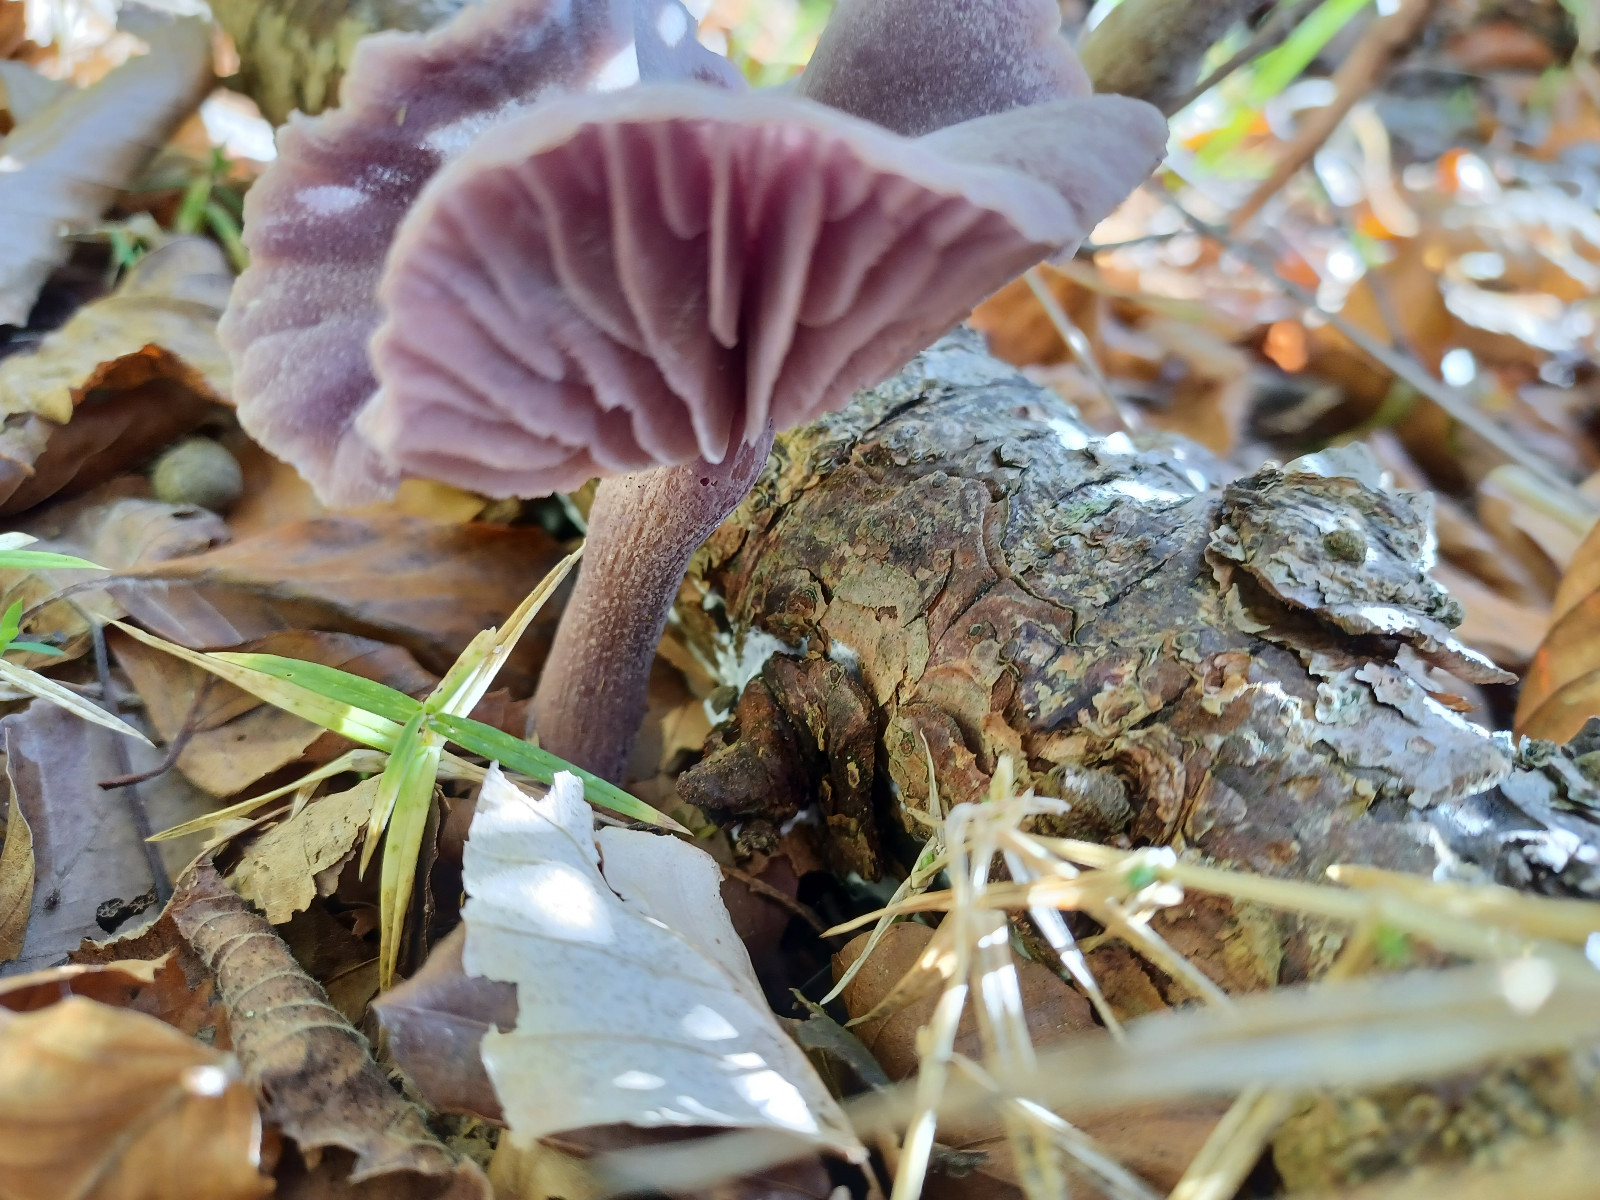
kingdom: Fungi
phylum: Basidiomycota
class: Agaricomycetes
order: Agaricales
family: Hydnangiaceae
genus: Laccaria
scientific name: Laccaria amethystina
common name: violet ametysthat
